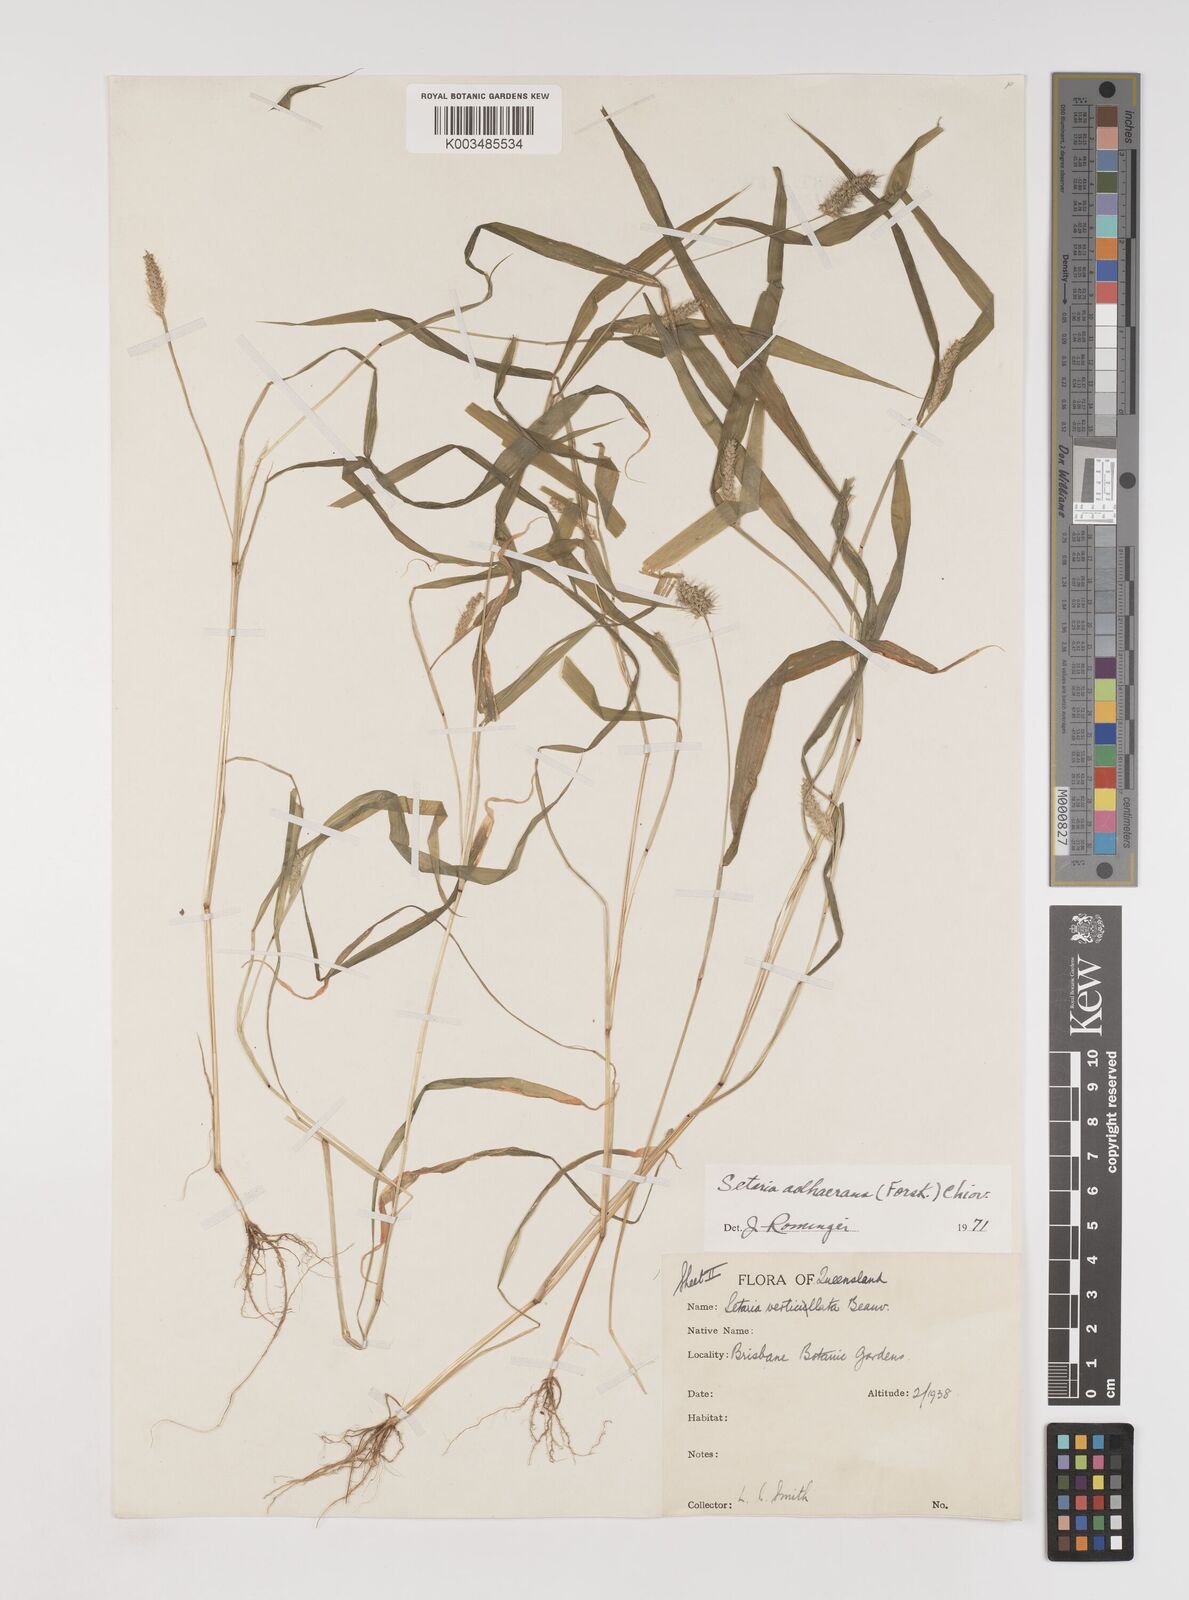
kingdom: Plantae
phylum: Tracheophyta
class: Liliopsida
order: Poales
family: Poaceae
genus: Setaria
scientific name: Setaria verticillata
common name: Hooked bristlegrass
